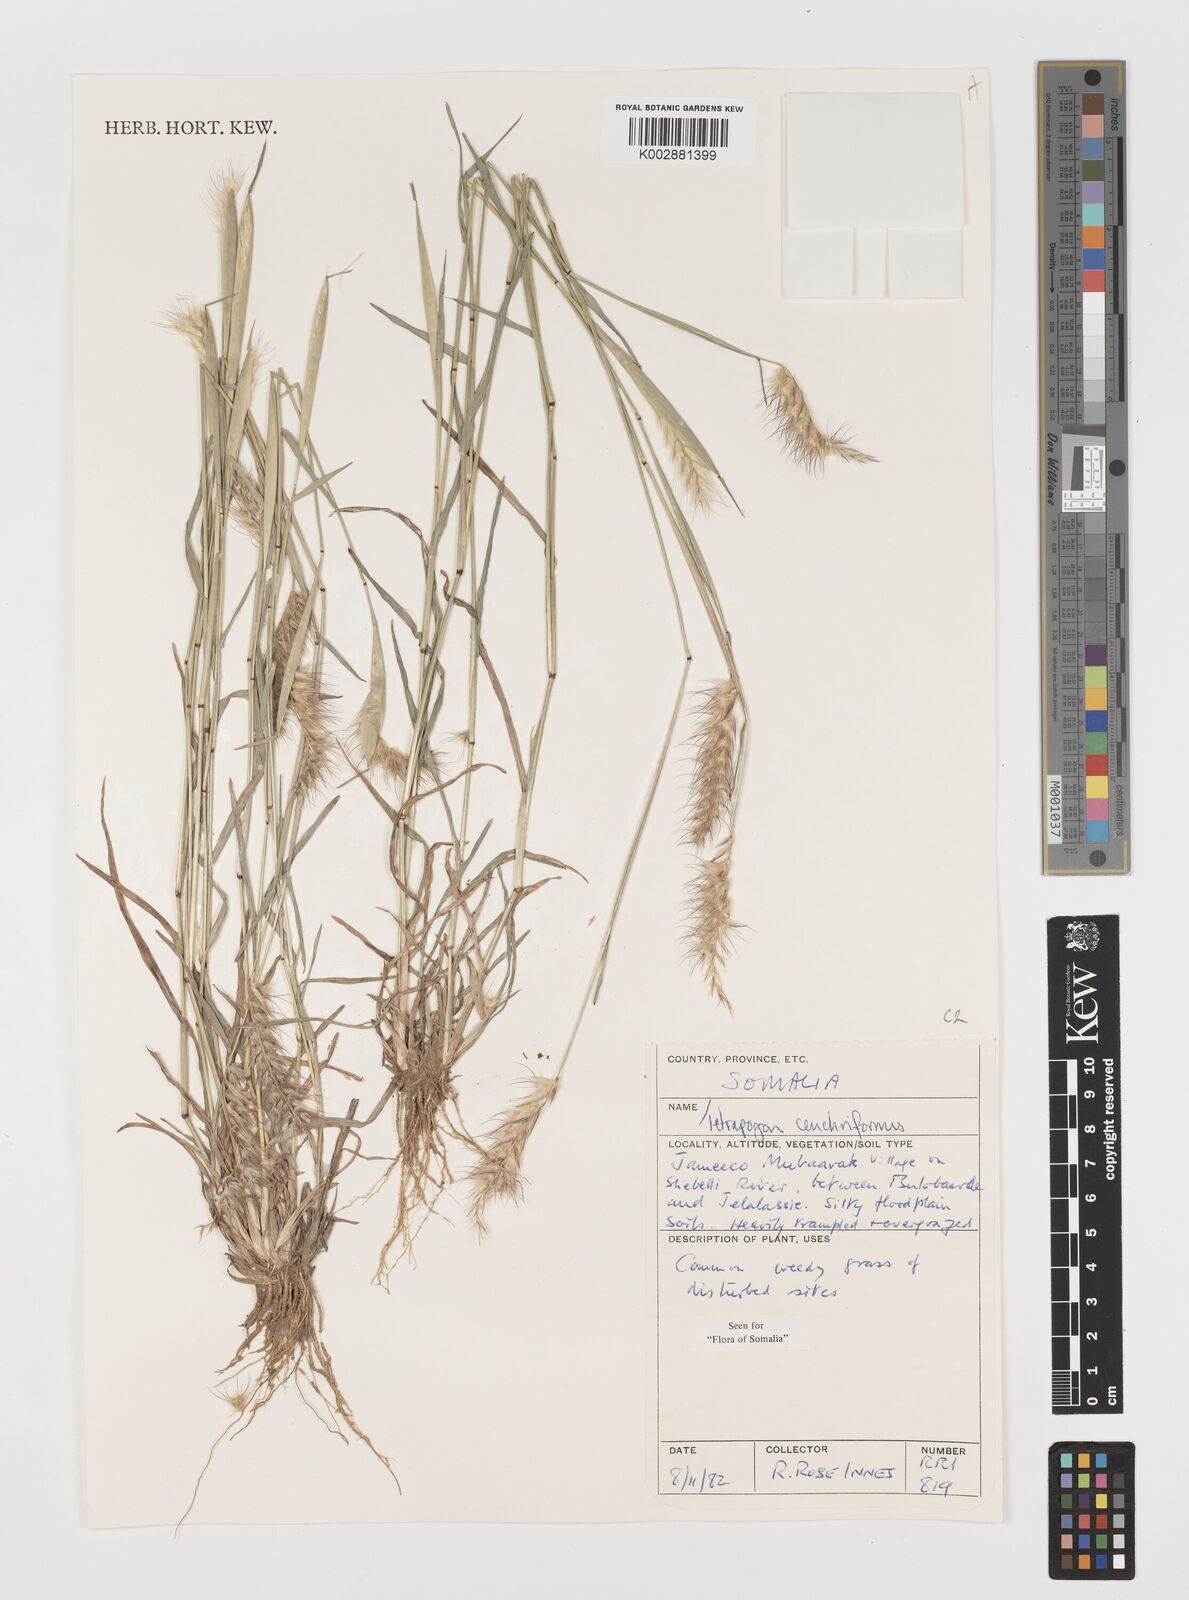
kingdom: Plantae
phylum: Tracheophyta
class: Liliopsida
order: Poales
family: Poaceae
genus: Tetrapogon
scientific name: Tetrapogon cenchriformis
